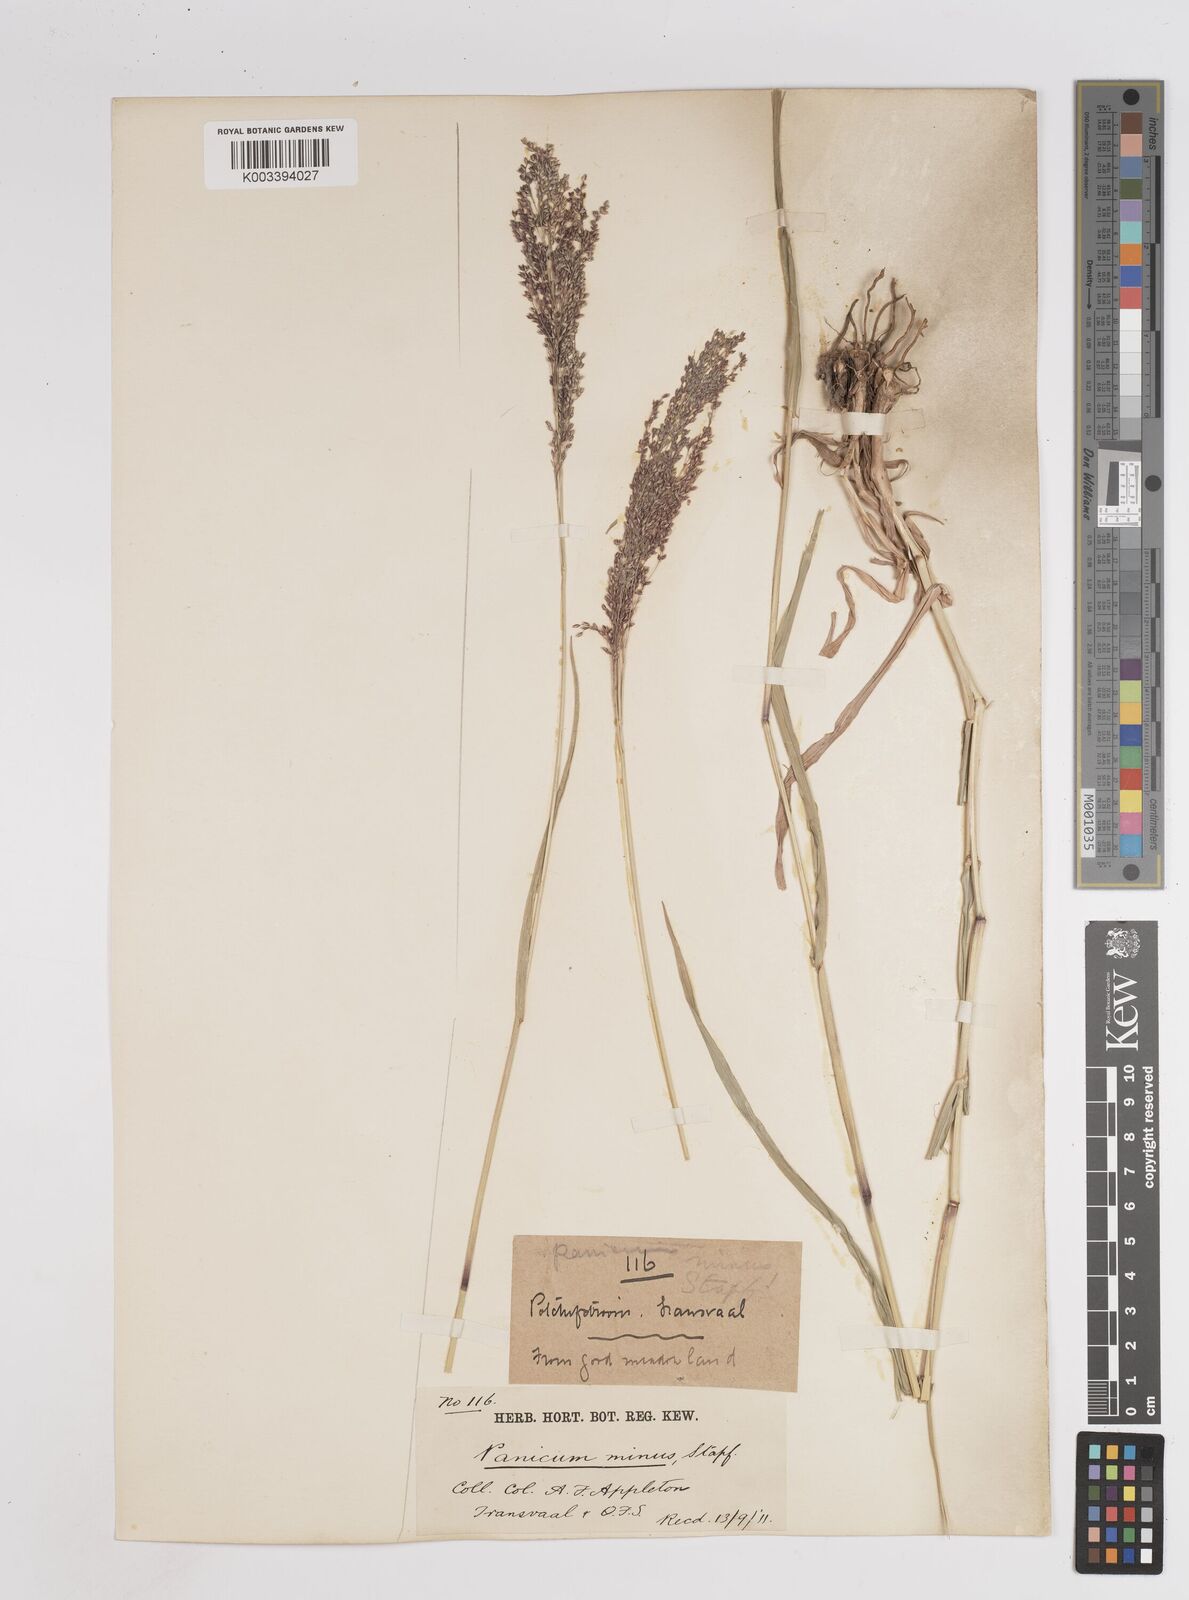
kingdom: Plantae
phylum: Tracheophyta
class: Liliopsida
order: Poales
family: Poaceae
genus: Panicum
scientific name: Panicum
